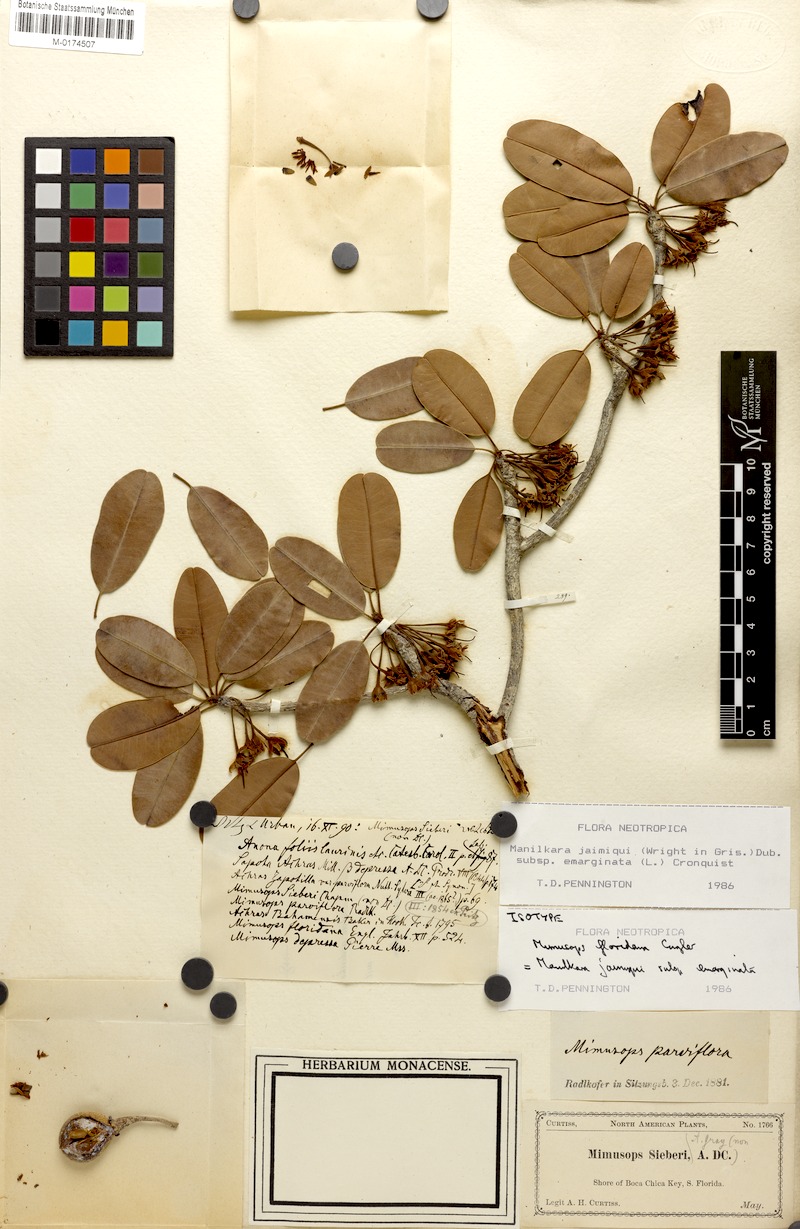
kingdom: Plantae
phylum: Tracheophyta
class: Magnoliopsida
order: Ericales
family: Sapotaceae
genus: Manilkara
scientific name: Manilkara jaimiqui
